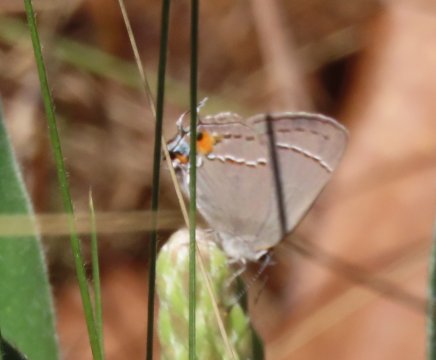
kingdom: Animalia
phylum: Arthropoda
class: Insecta
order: Lepidoptera
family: Lycaenidae
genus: Strymon
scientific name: Strymon melinus
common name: Gray Hairstreak
